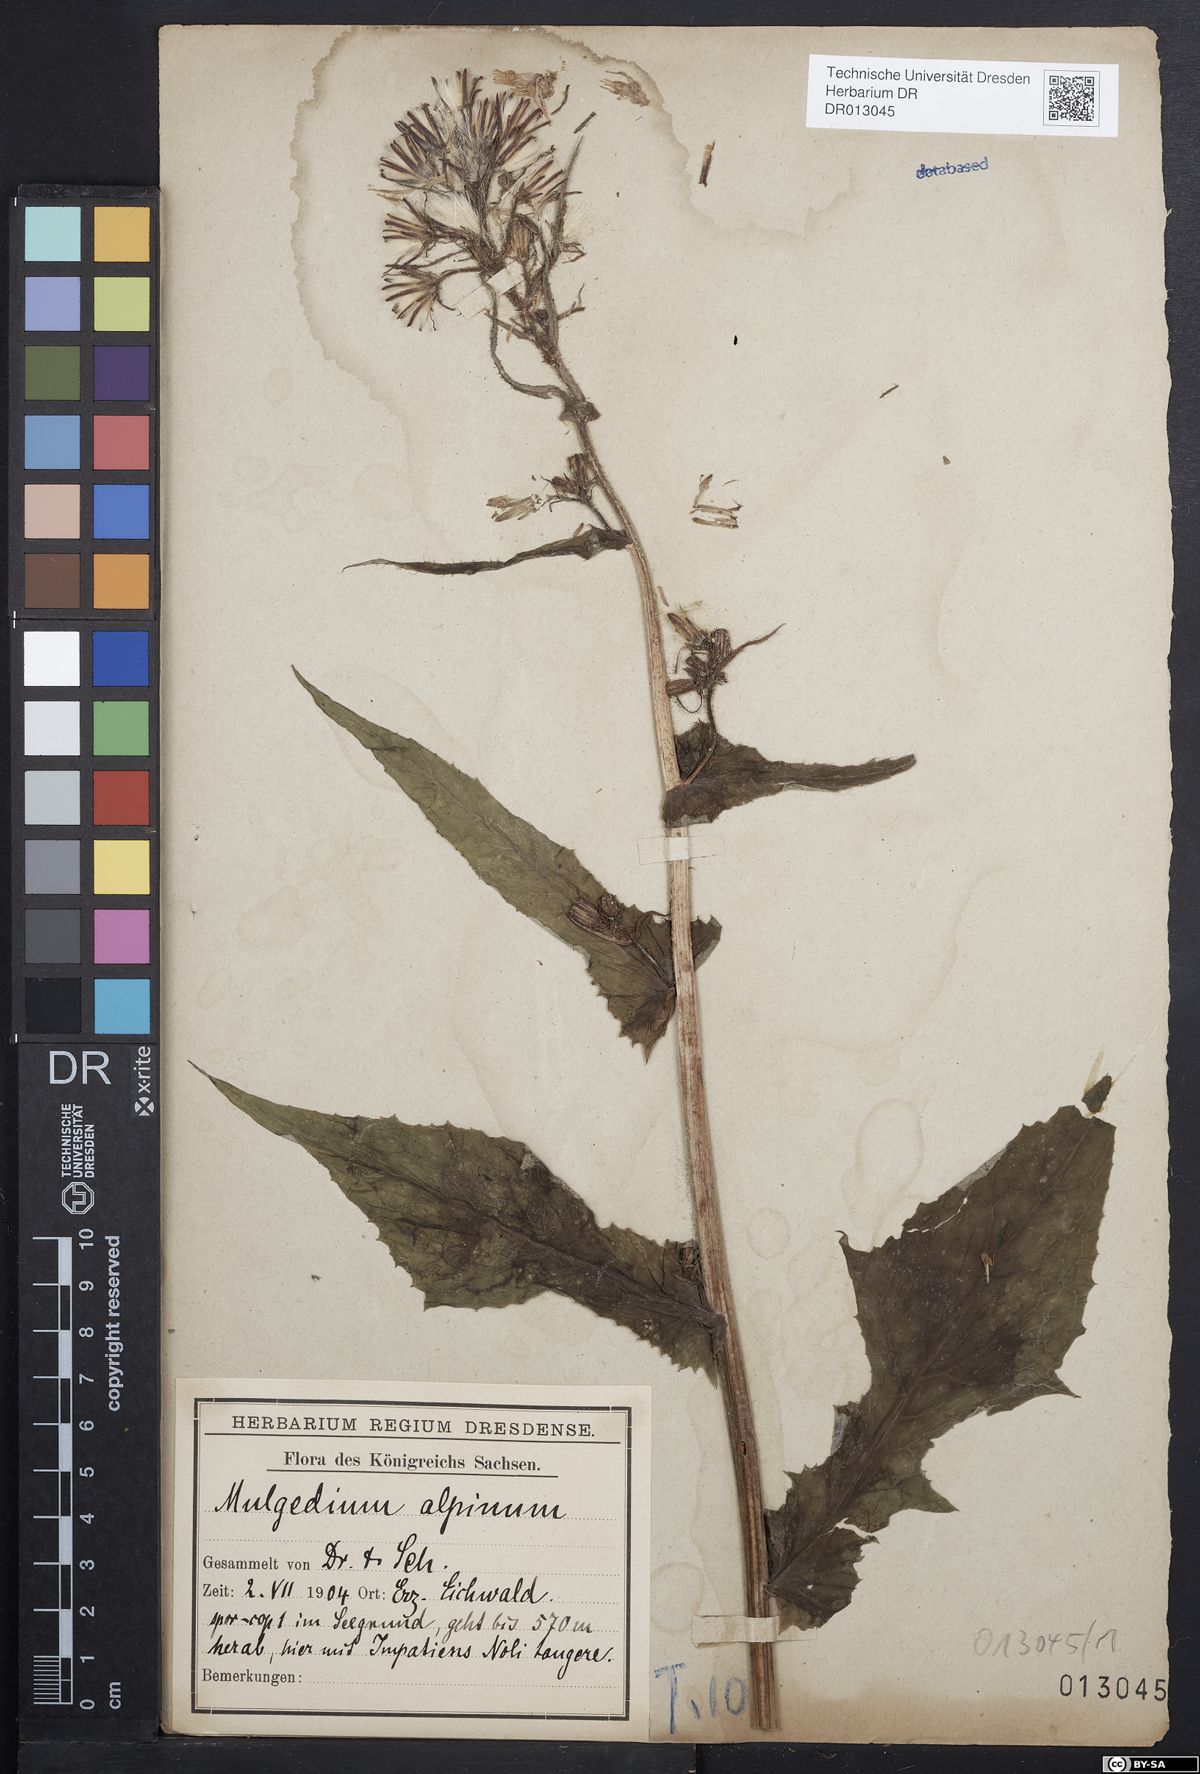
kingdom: Plantae
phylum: Tracheophyta
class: Magnoliopsida
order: Asterales
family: Asteraceae
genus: Cicerbita
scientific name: Cicerbita alpina
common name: Alpine blue-sow-thistle
